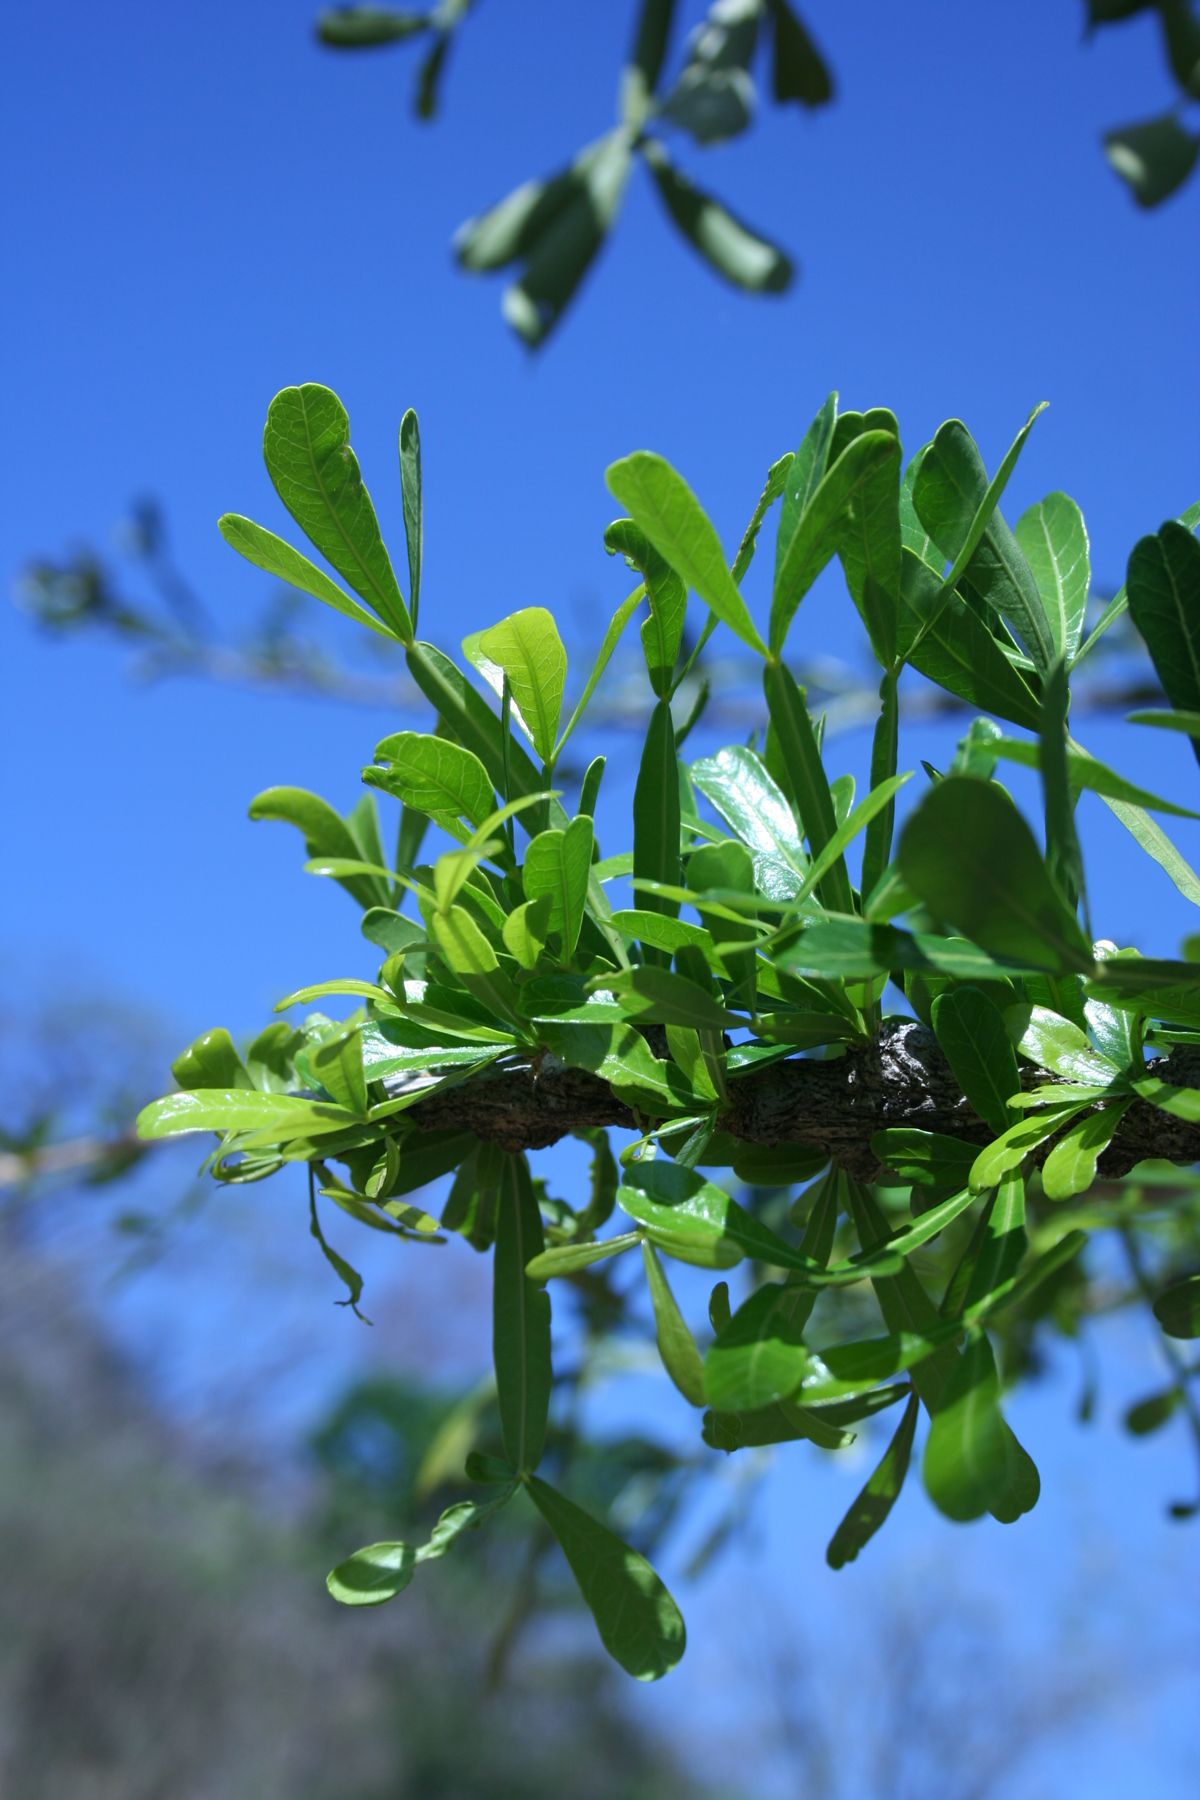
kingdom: Plantae
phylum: Tracheophyta
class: Magnoliopsida
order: Lamiales
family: Bignoniaceae
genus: Crescentia
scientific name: Crescentia alata
